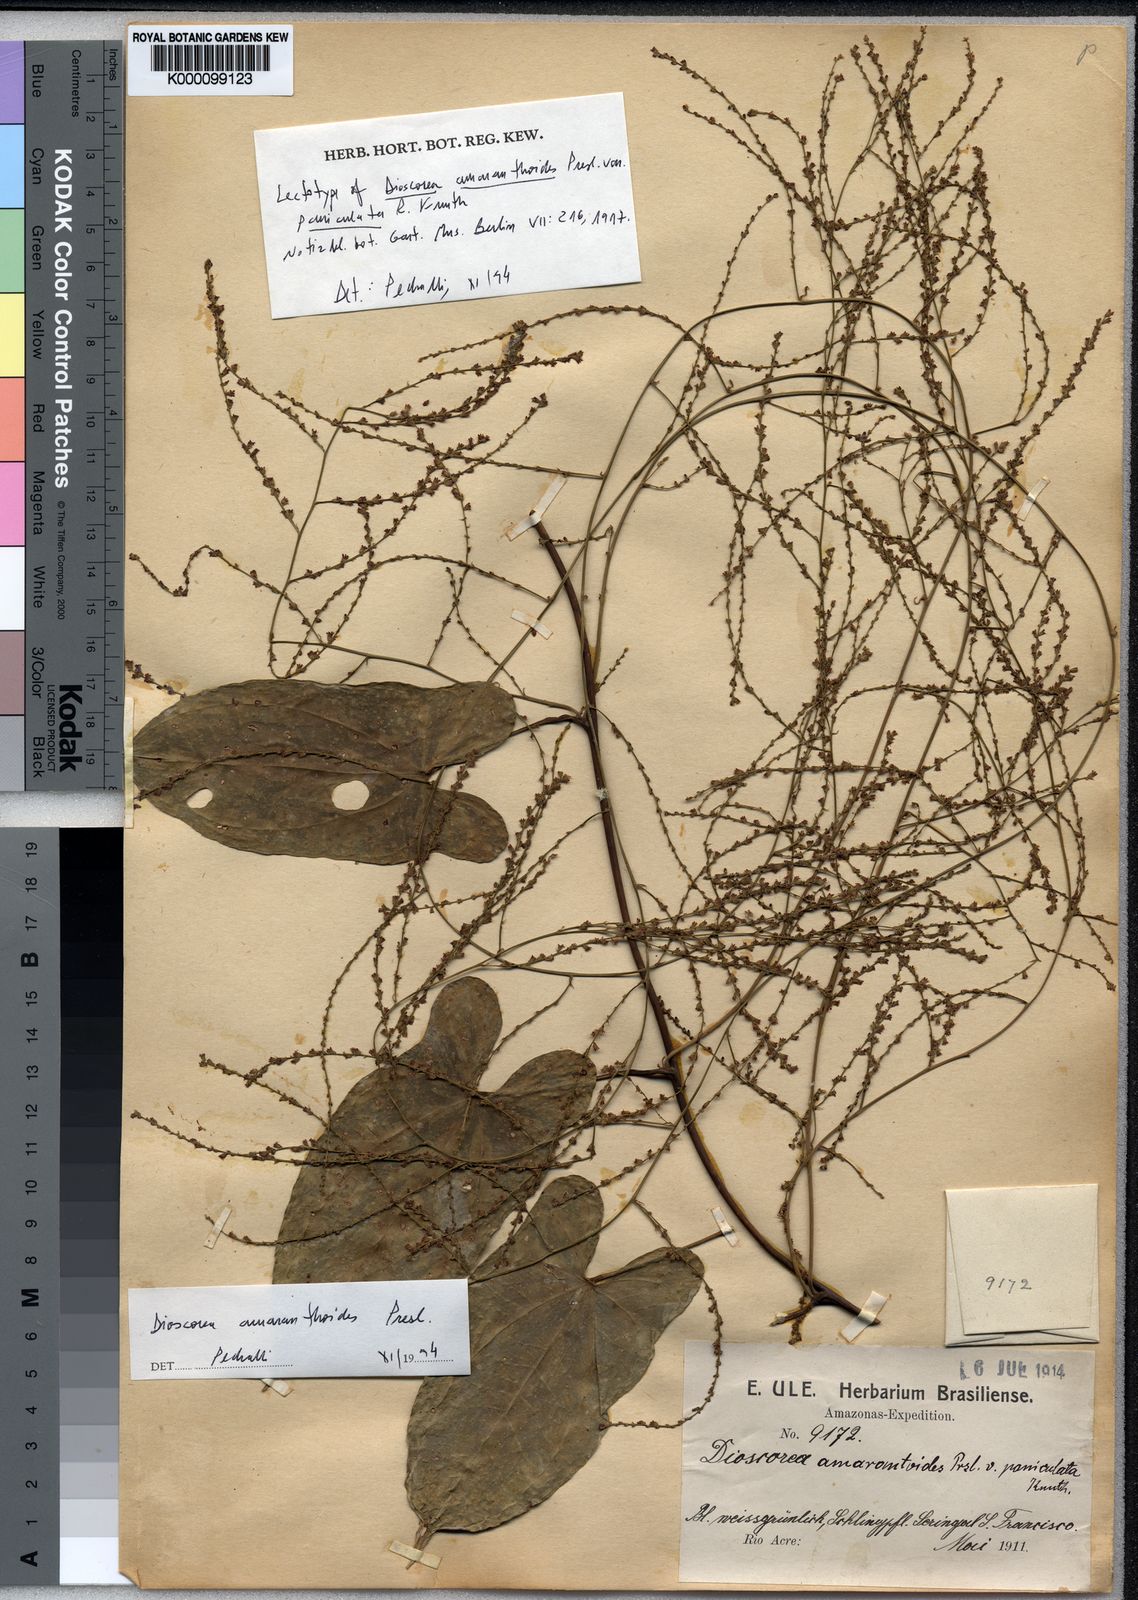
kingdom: Plantae
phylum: Tracheophyta
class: Liliopsida
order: Dioscoreales
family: Dioscoreaceae
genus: Dioscorea
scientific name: Dioscorea amaranthoides
